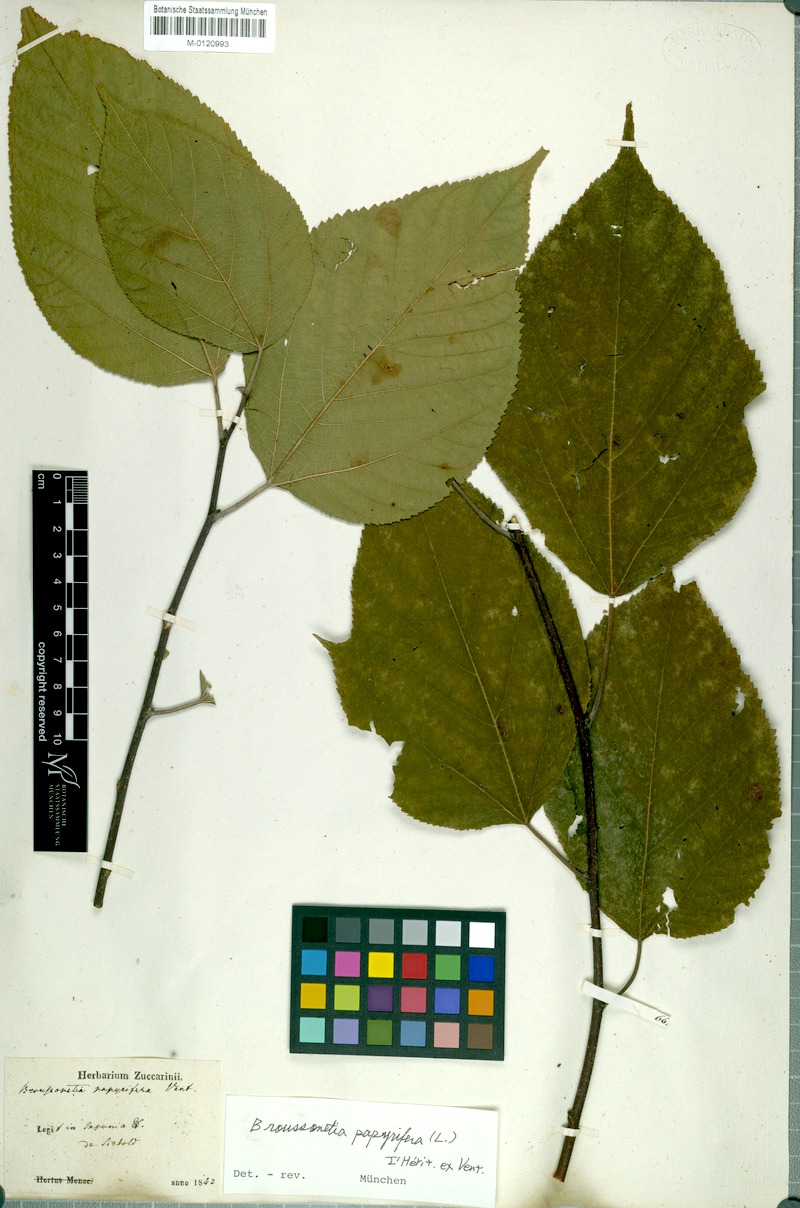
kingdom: Plantae
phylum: Tracheophyta
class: Magnoliopsida
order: Rosales
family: Moraceae
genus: Broussonetia
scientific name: Broussonetia papyrifera
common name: Paper mulberry
